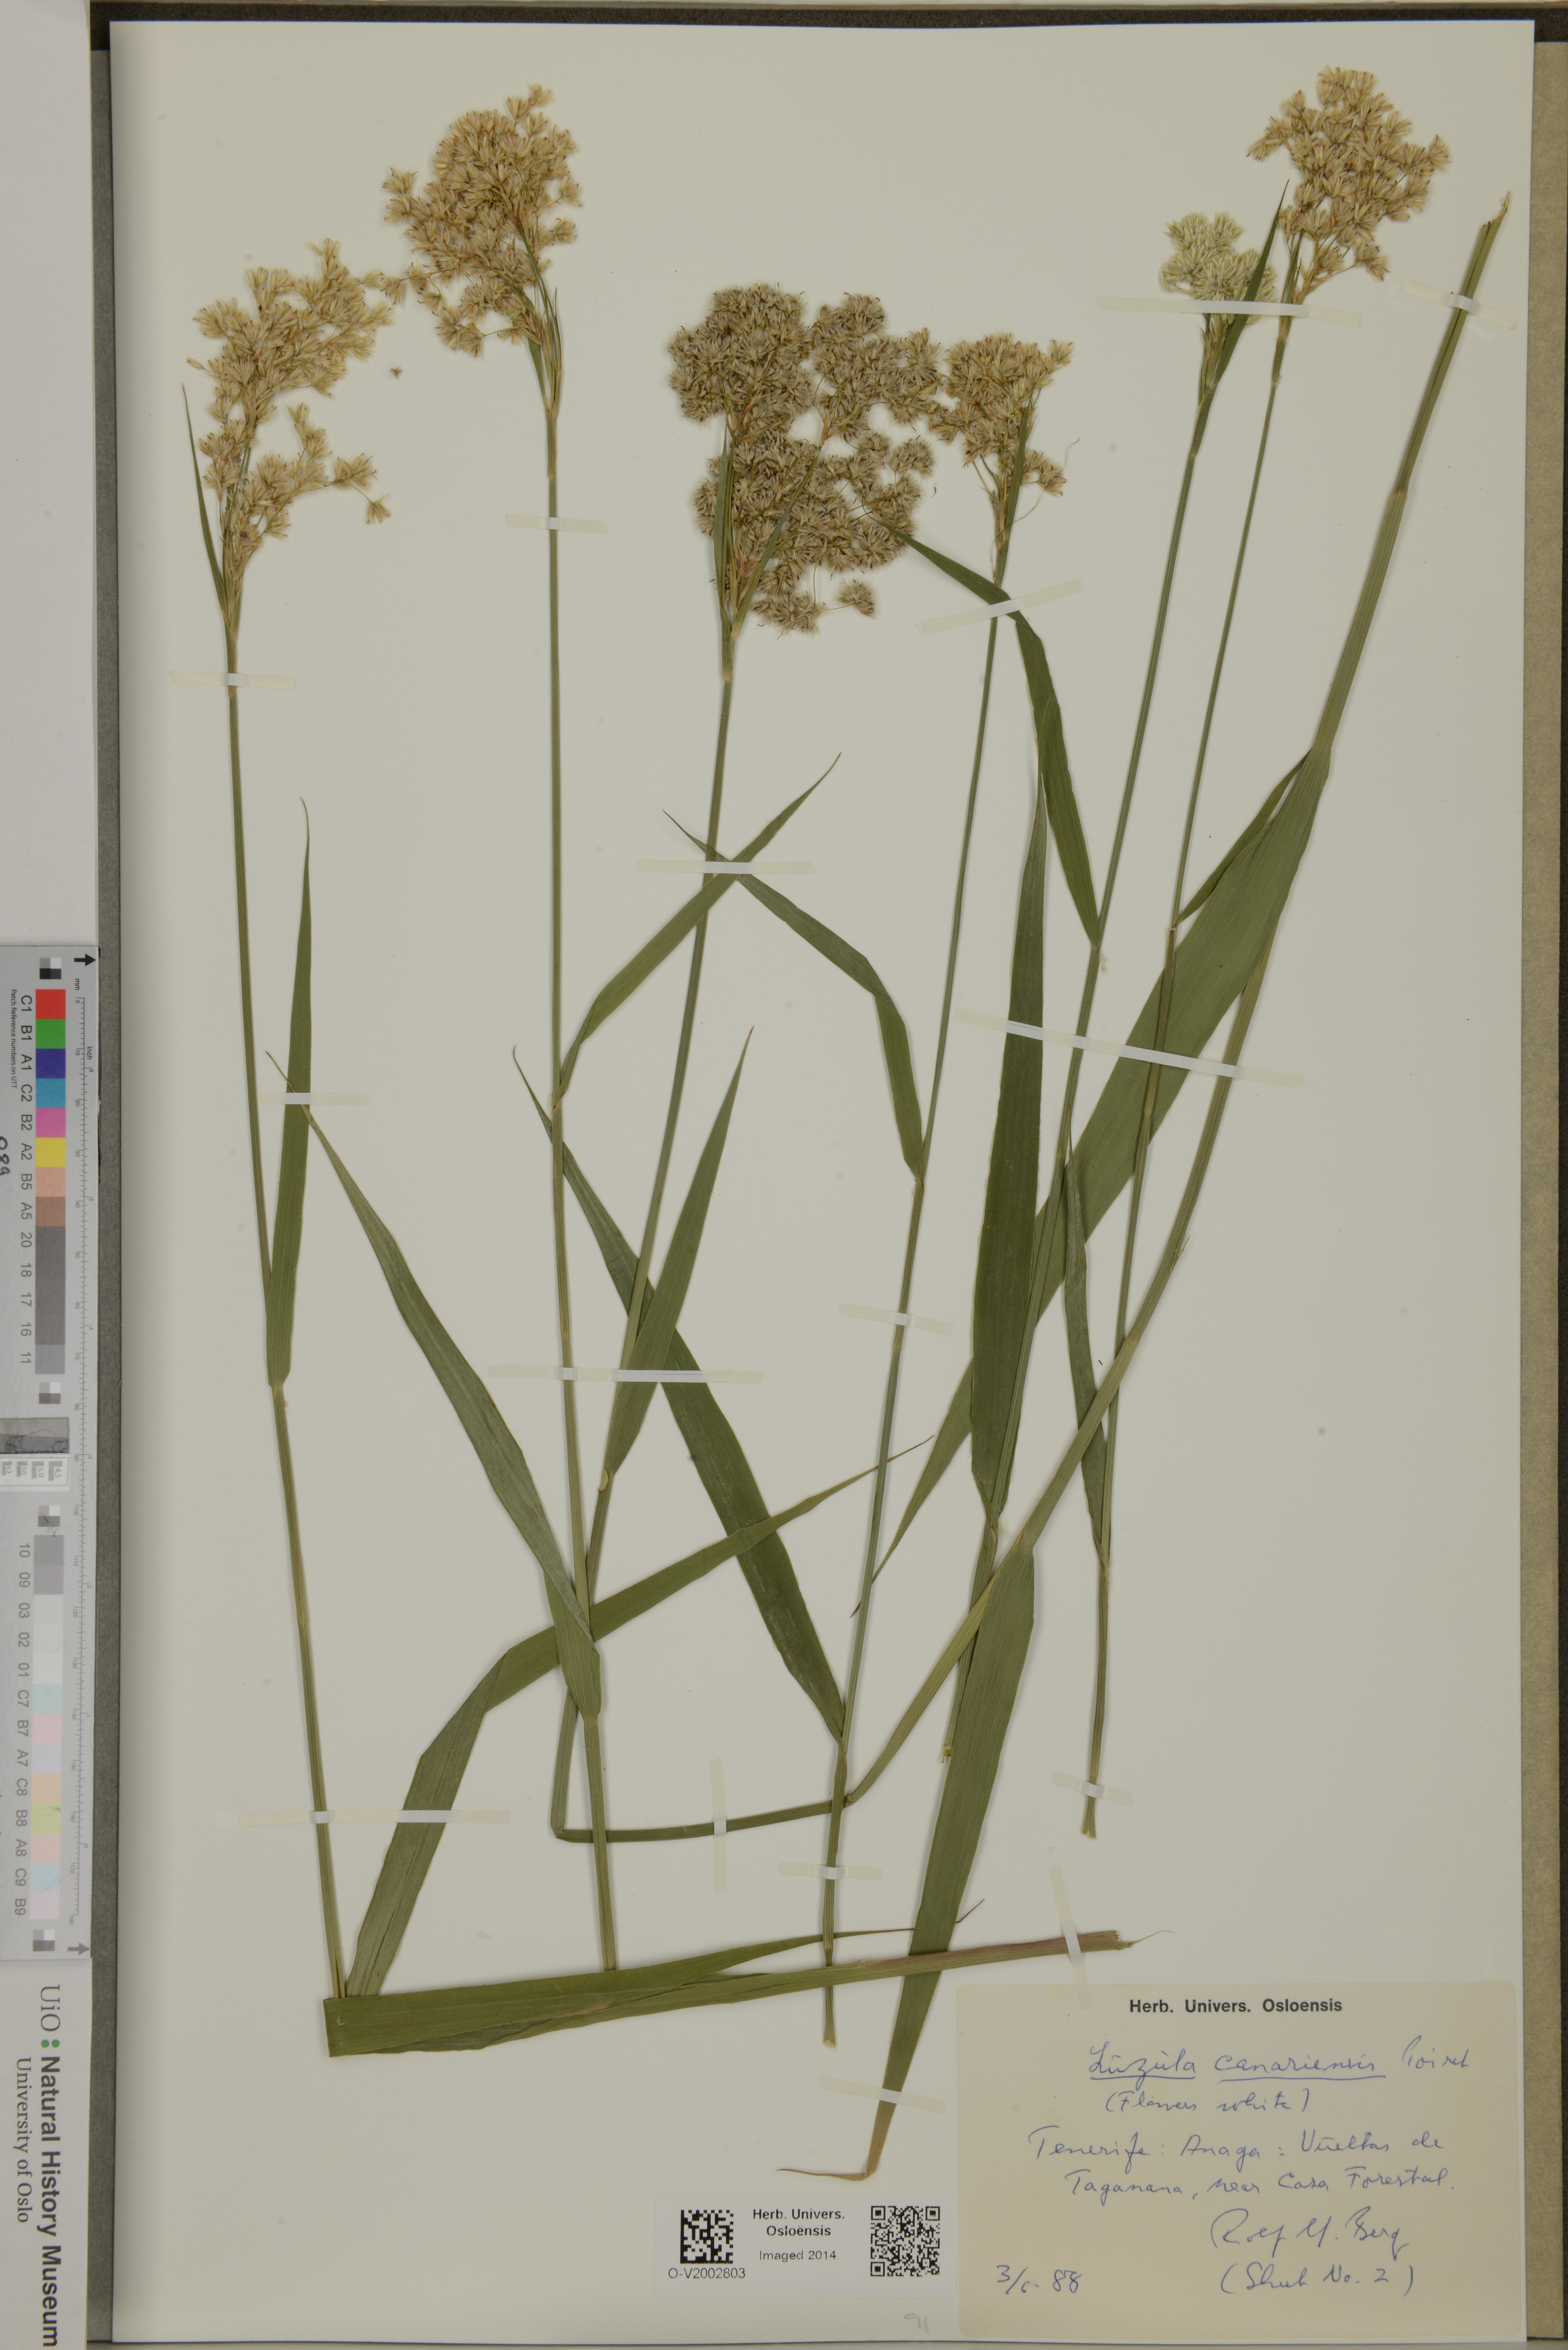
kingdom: Plantae
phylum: Tracheophyta
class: Liliopsida
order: Poales
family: Juncaceae
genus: Luzula
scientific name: Luzula canariensis
